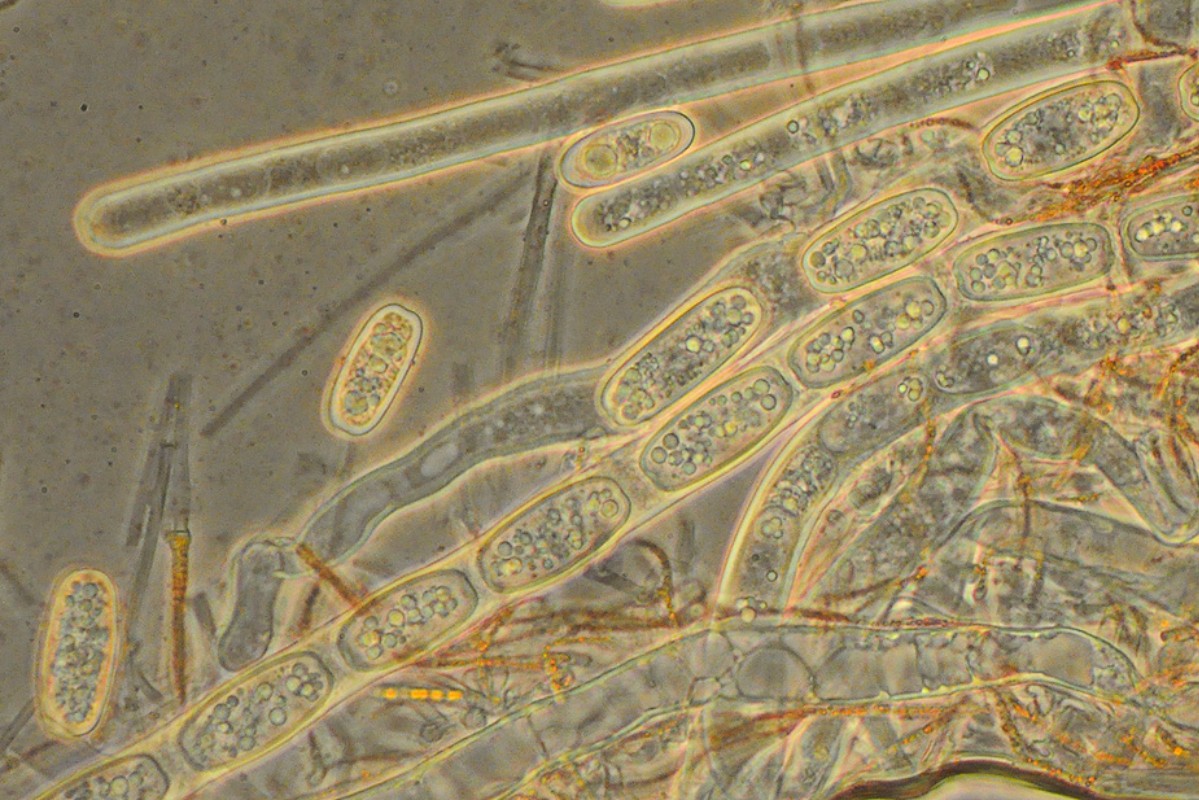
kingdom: Fungi
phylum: Ascomycota
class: Pezizomycetes
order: Pezizales
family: Sarcoscyphaceae
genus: Sarcoscypha
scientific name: Sarcoscypha austriaca
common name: krølhåret pragtbæger
